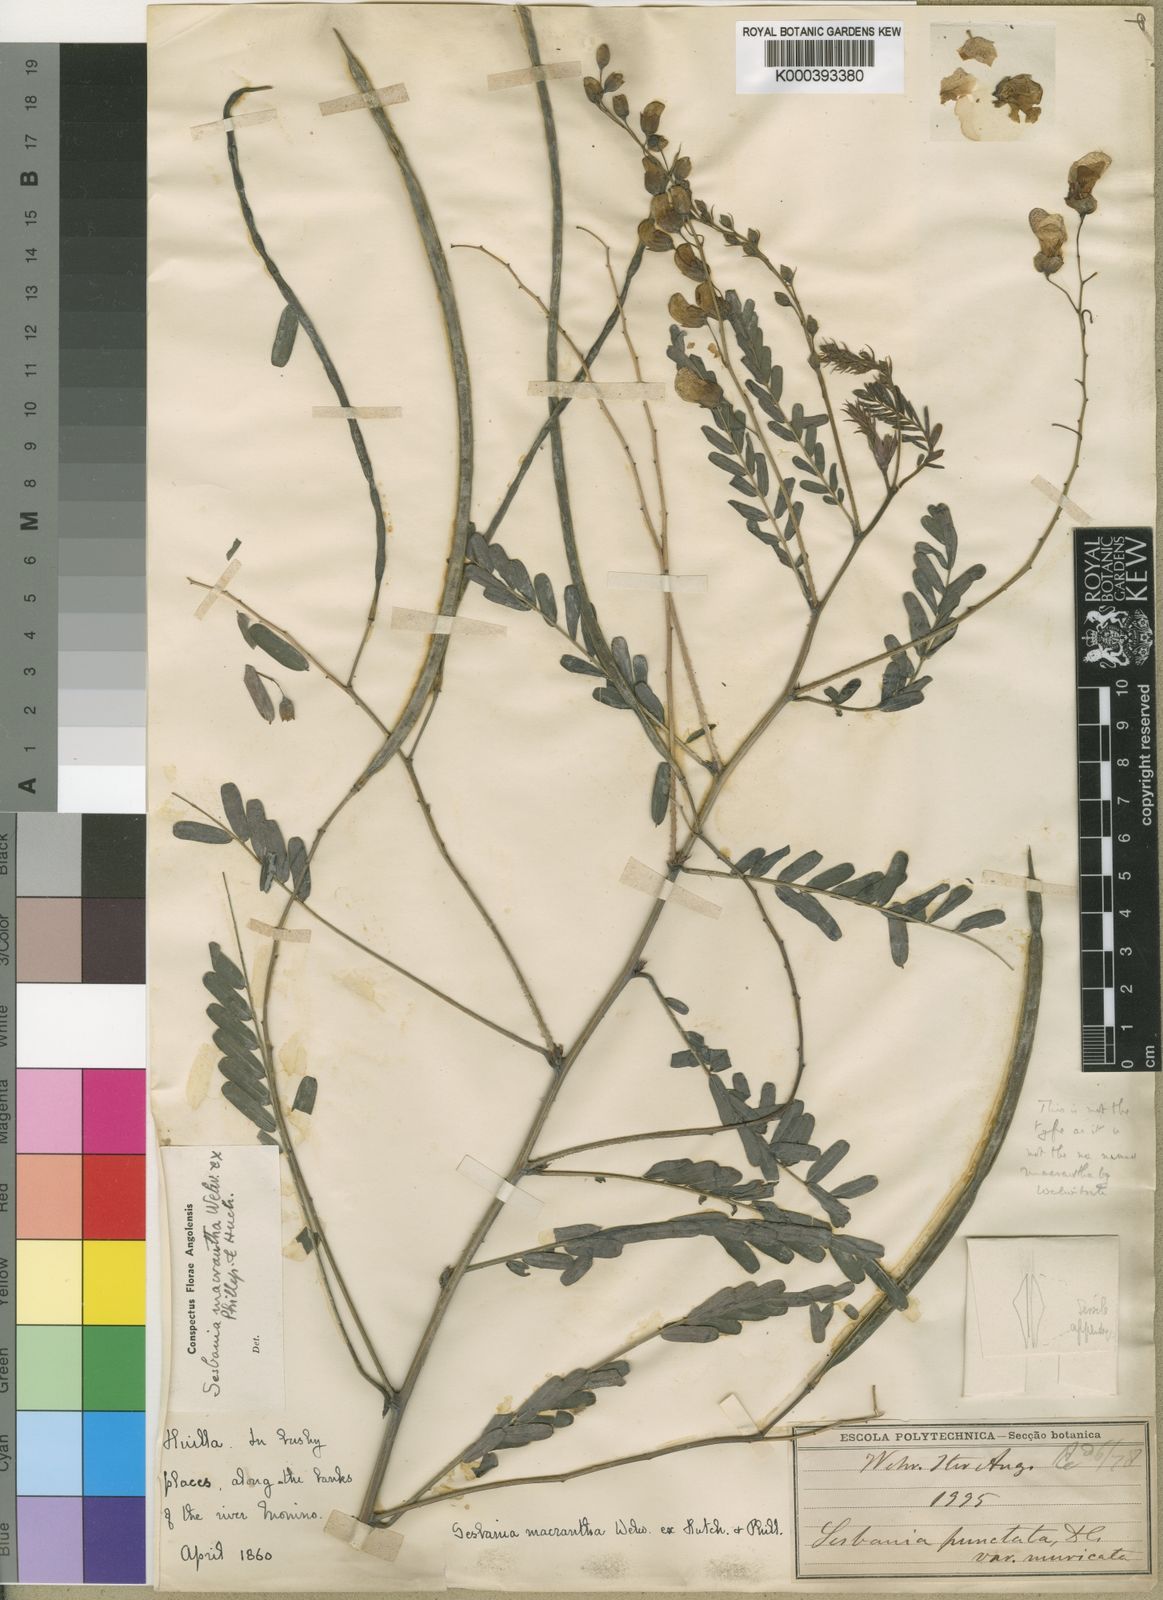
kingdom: Plantae
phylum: Tracheophyta
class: Magnoliopsida
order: Fabales
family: Fabaceae
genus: Sesbania
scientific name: Sesbania macrantha
